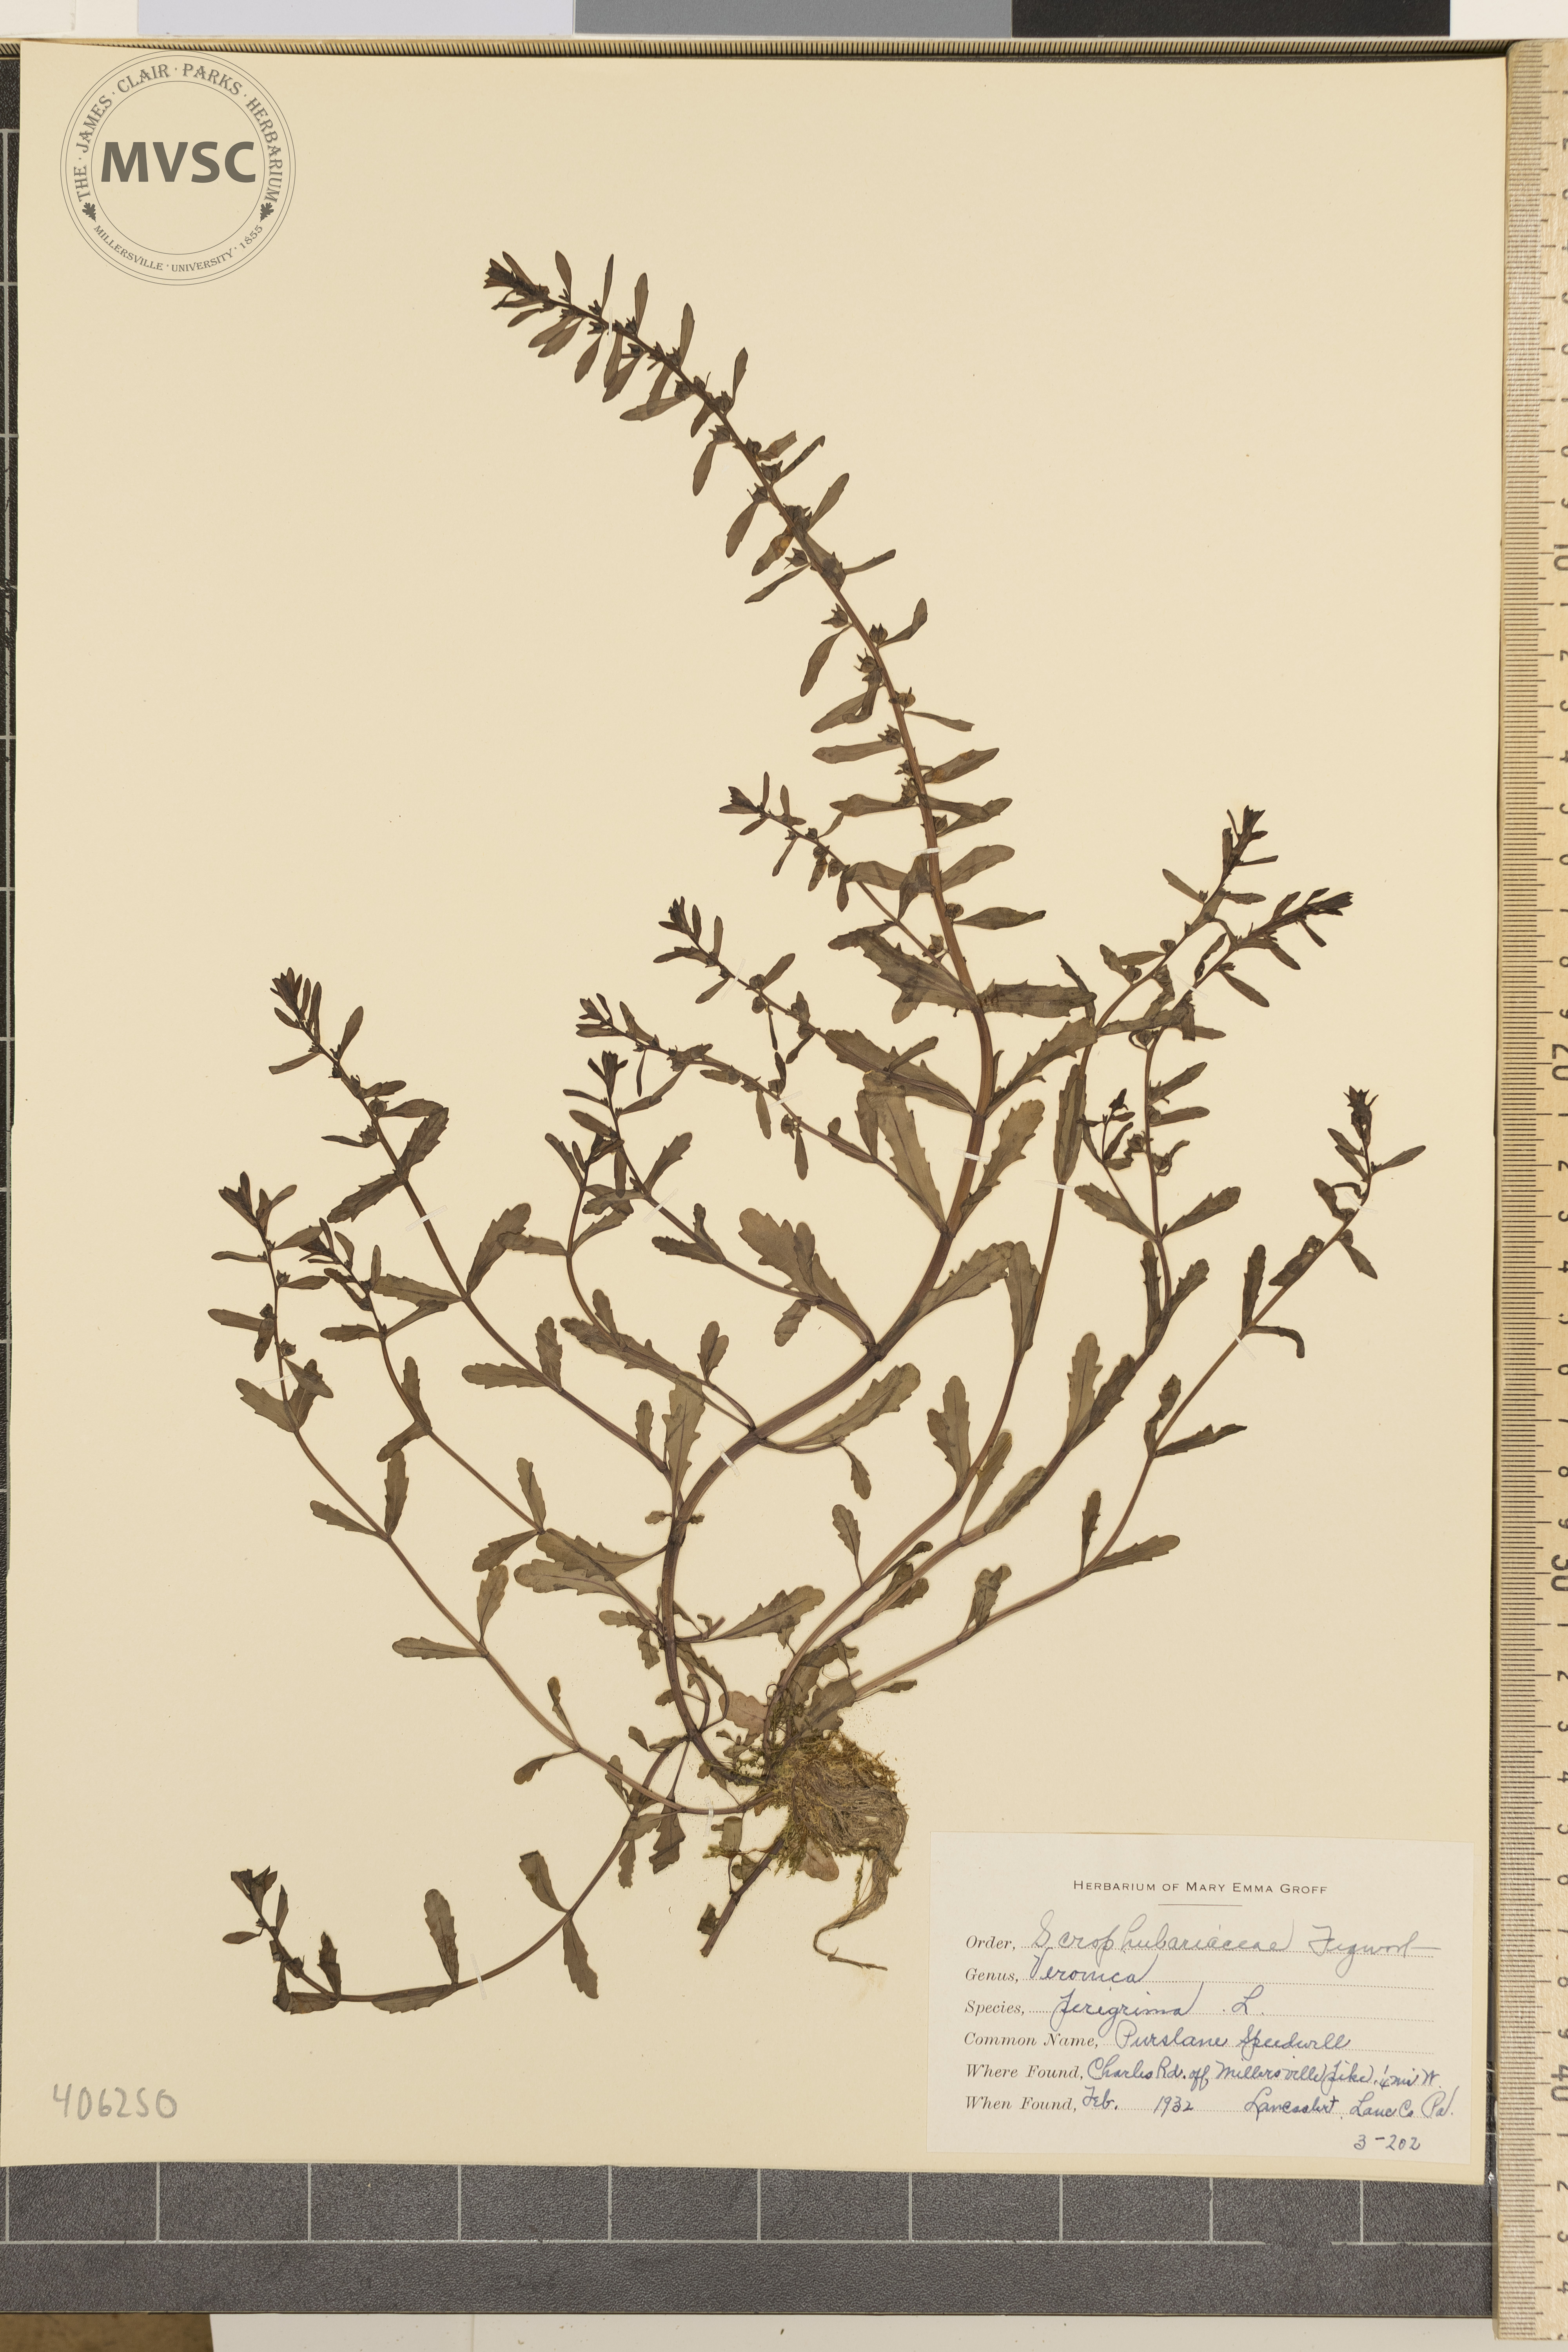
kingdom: Plantae
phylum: Tracheophyta
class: Magnoliopsida
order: Lamiales
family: Plantaginaceae
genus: Veronica
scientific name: Veronica peregrina
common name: Purslane Speedwell
